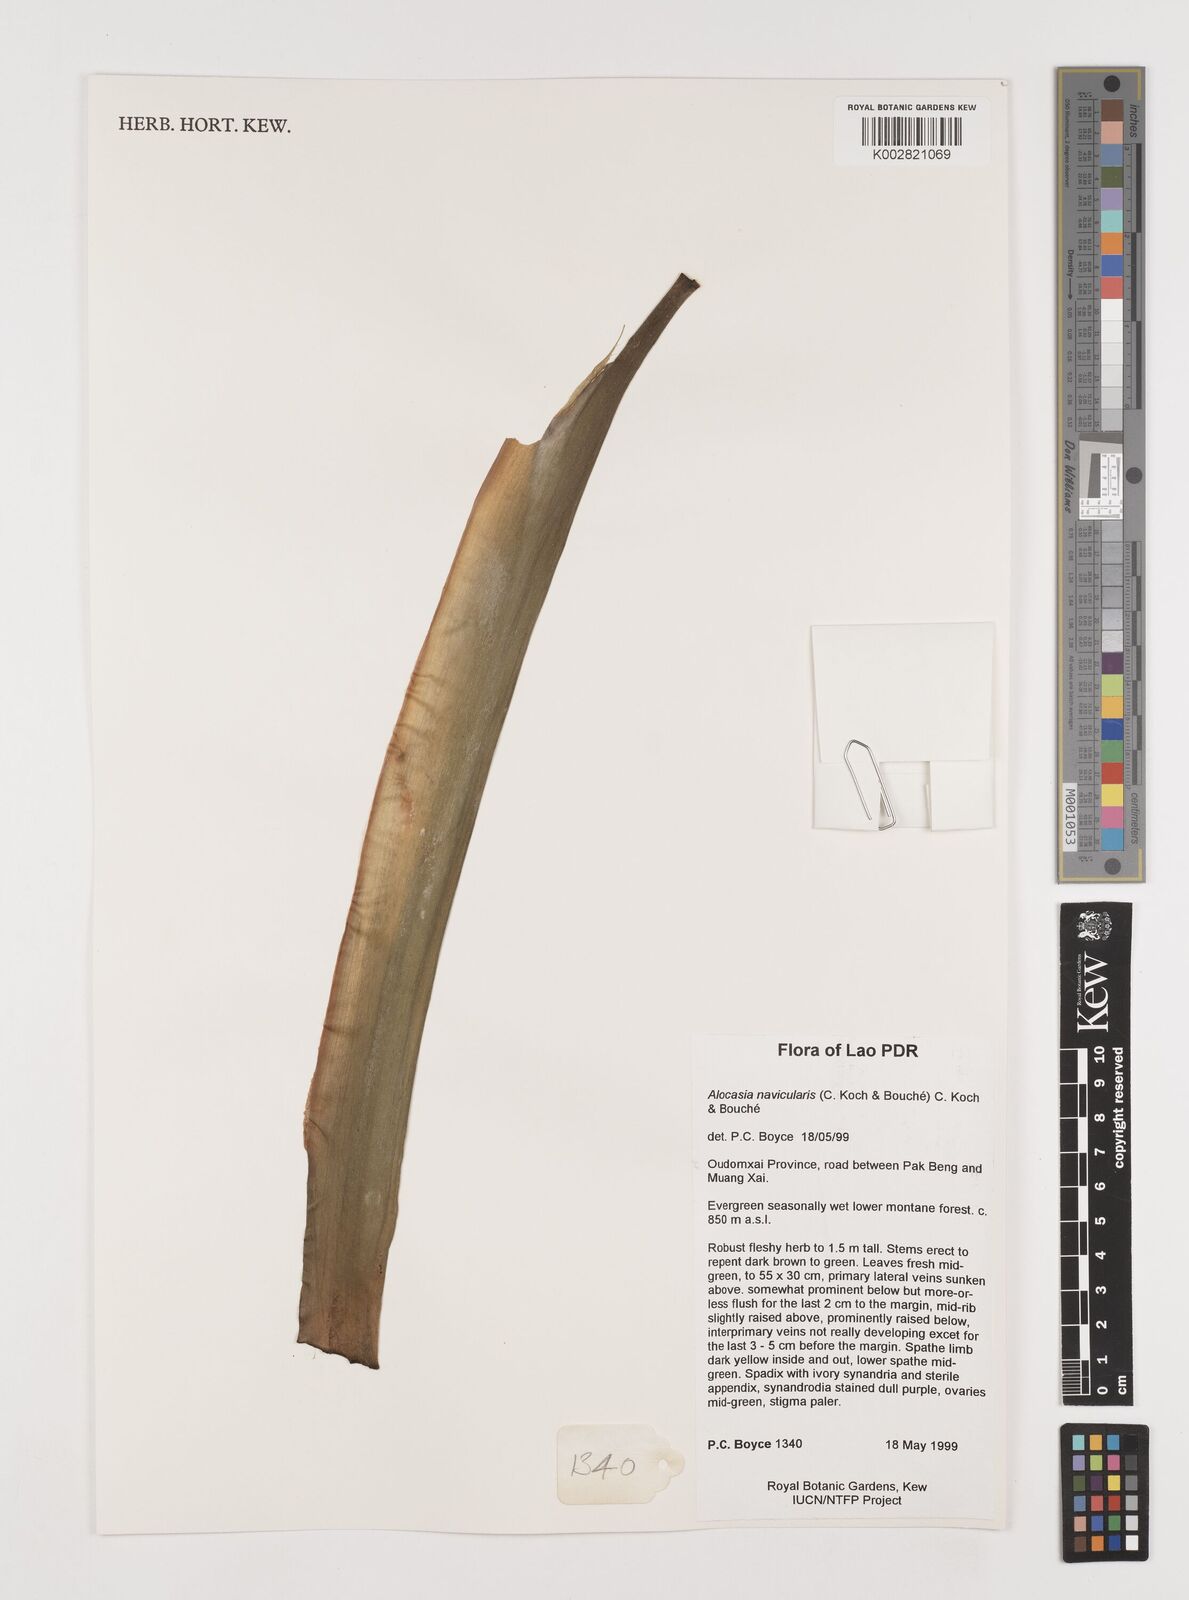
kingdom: Plantae
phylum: Tracheophyta
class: Liliopsida
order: Alismatales
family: Araceae
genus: Alocasia
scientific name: Alocasia navicularis
